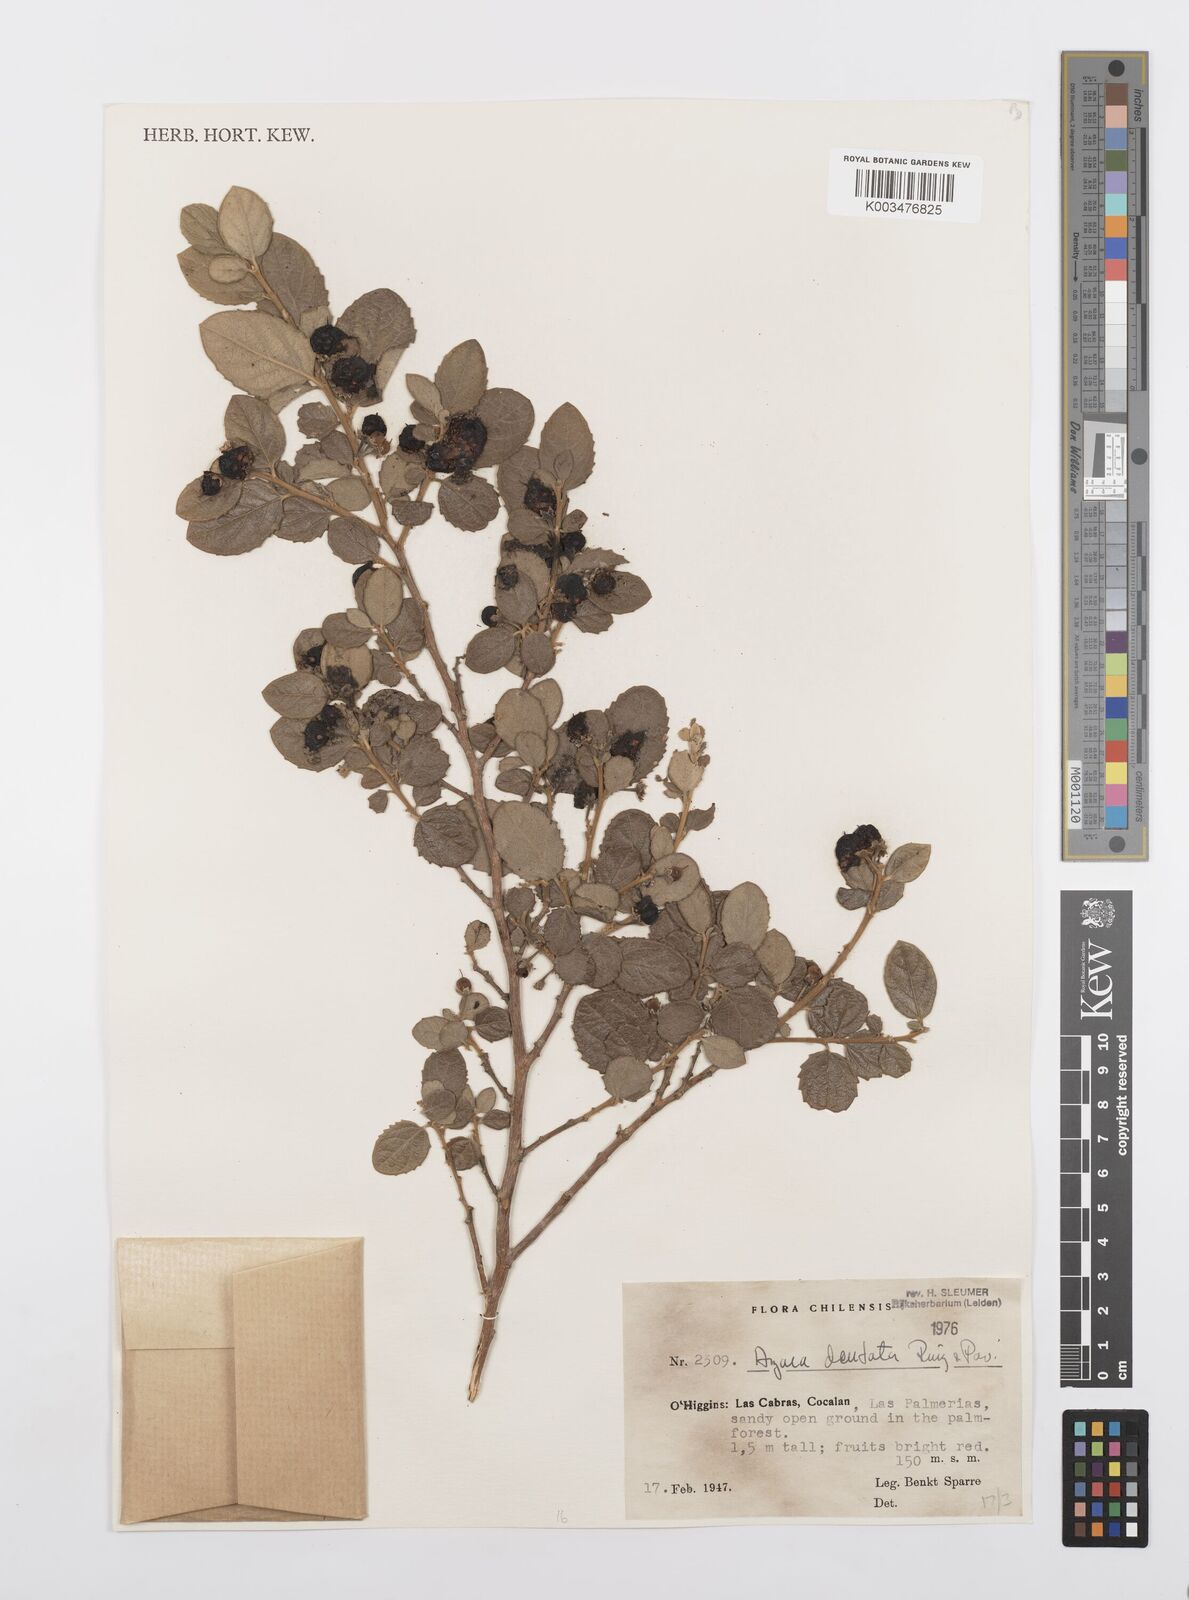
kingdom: Plantae
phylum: Tracheophyta
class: Magnoliopsida
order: Malpighiales
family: Salicaceae
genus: Azara
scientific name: Azara dentata
